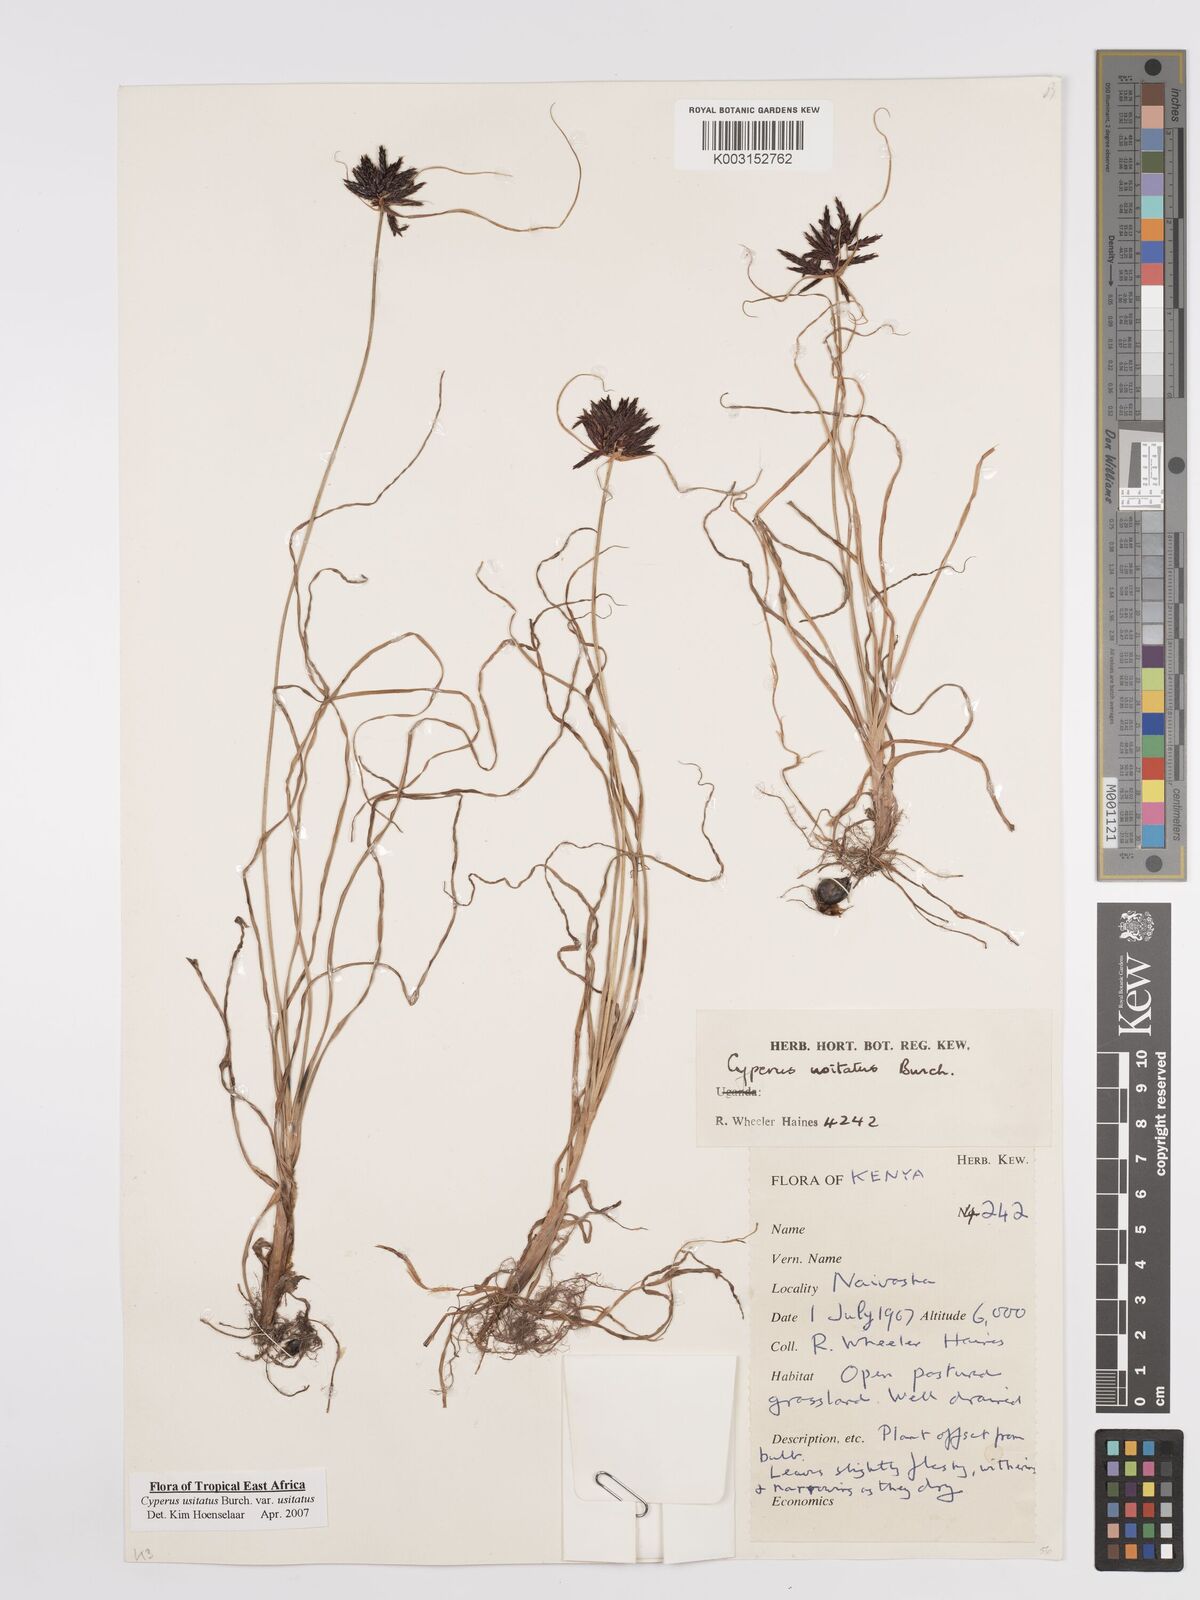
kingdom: Plantae
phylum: Tracheophyta
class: Liliopsida
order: Poales
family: Cyperaceae
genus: Cyperus
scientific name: Cyperus usitatus
